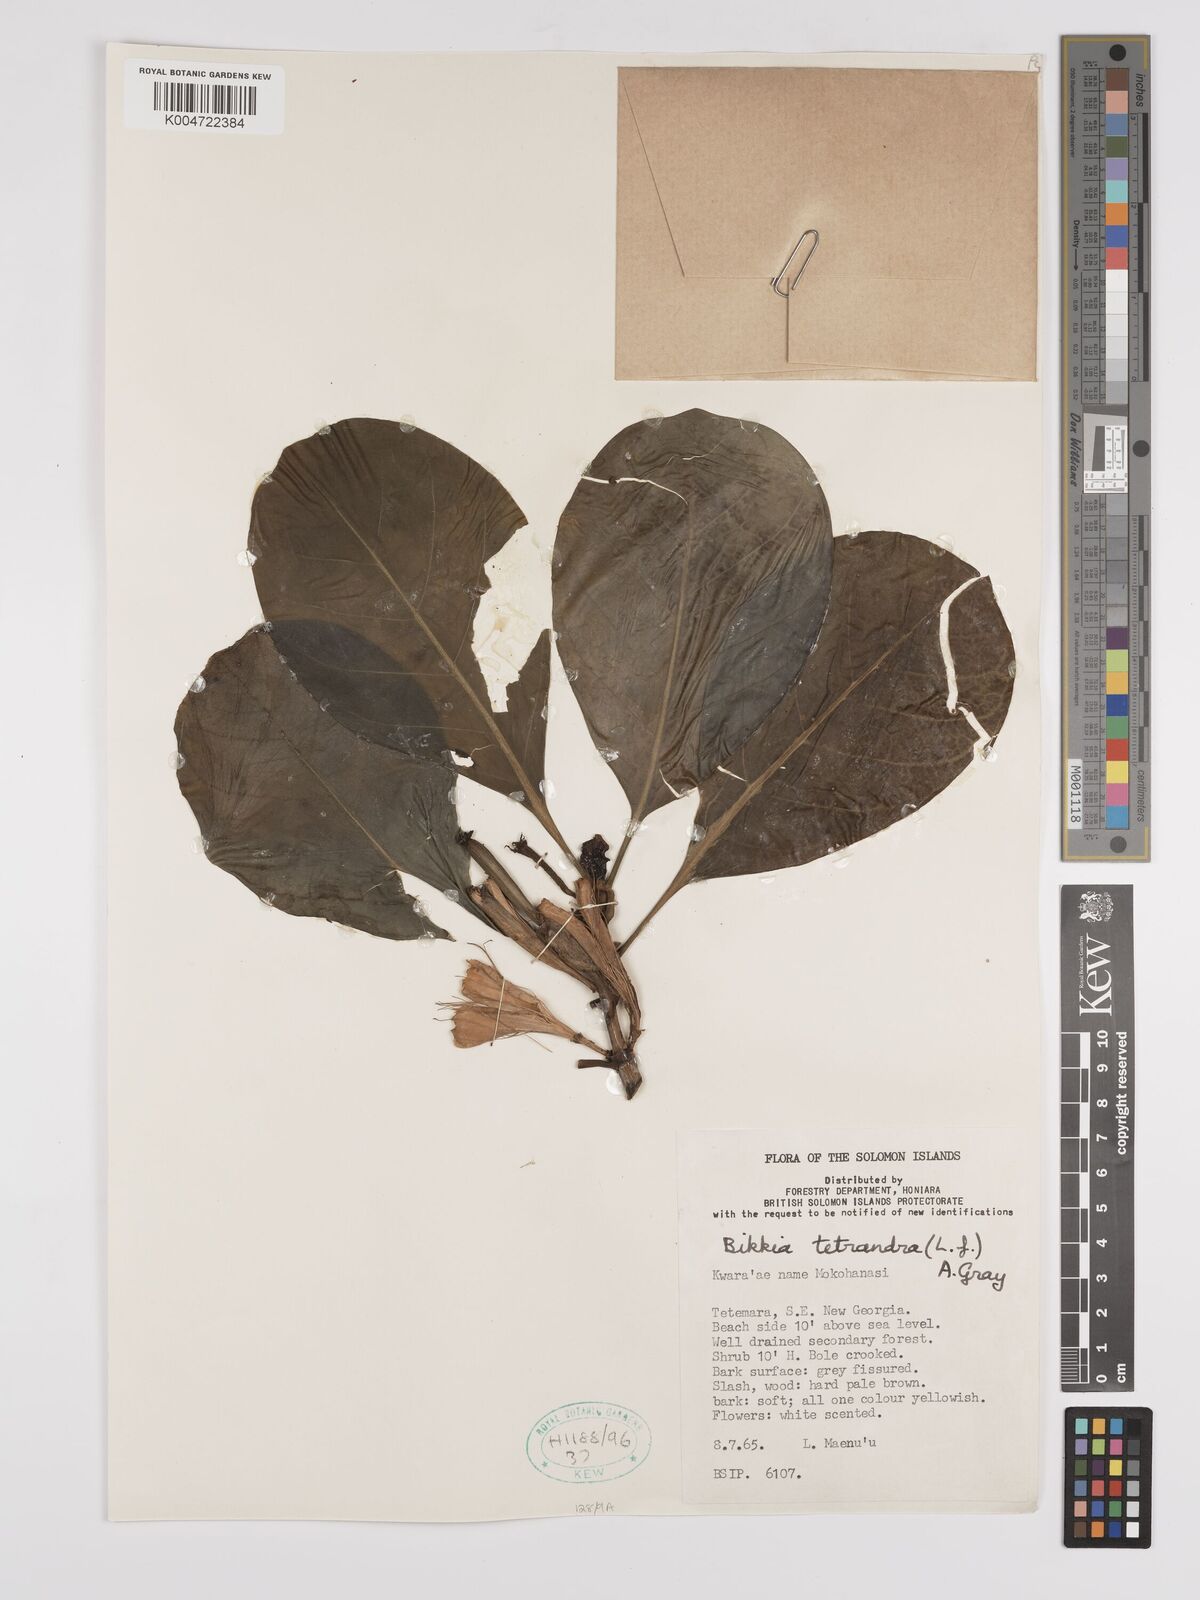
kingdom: Plantae
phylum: Tracheophyta
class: Magnoliopsida
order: Gentianales
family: Rubiaceae
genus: Bikkia
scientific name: Bikkia
